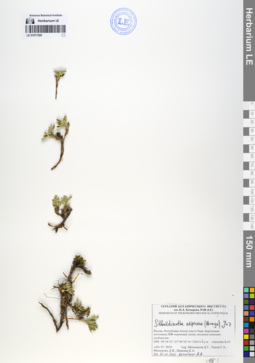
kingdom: Plantae
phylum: Tracheophyta
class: Magnoliopsida
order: Rosales
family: Rosaceae
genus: Sibbaldianthe
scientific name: Sibbaldianthe adpressa
